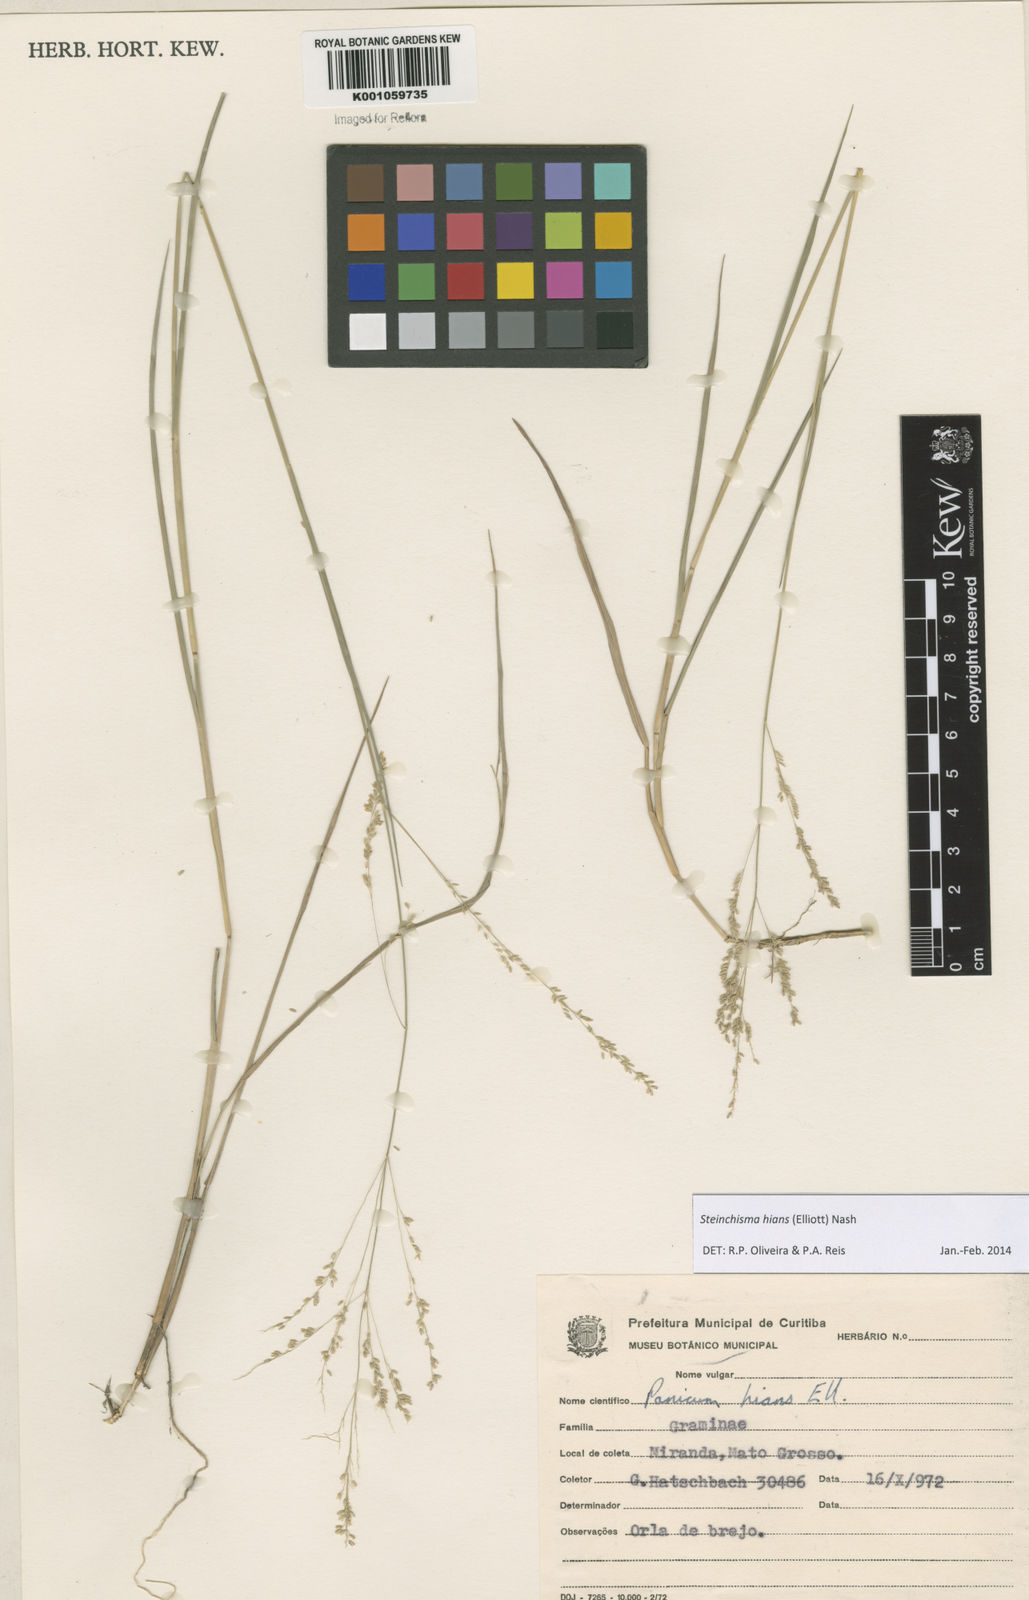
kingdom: Plantae
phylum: Tracheophyta
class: Liliopsida
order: Poales
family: Poaceae
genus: Steinchisma
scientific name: Steinchisma hians
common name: Gaping panic grass
